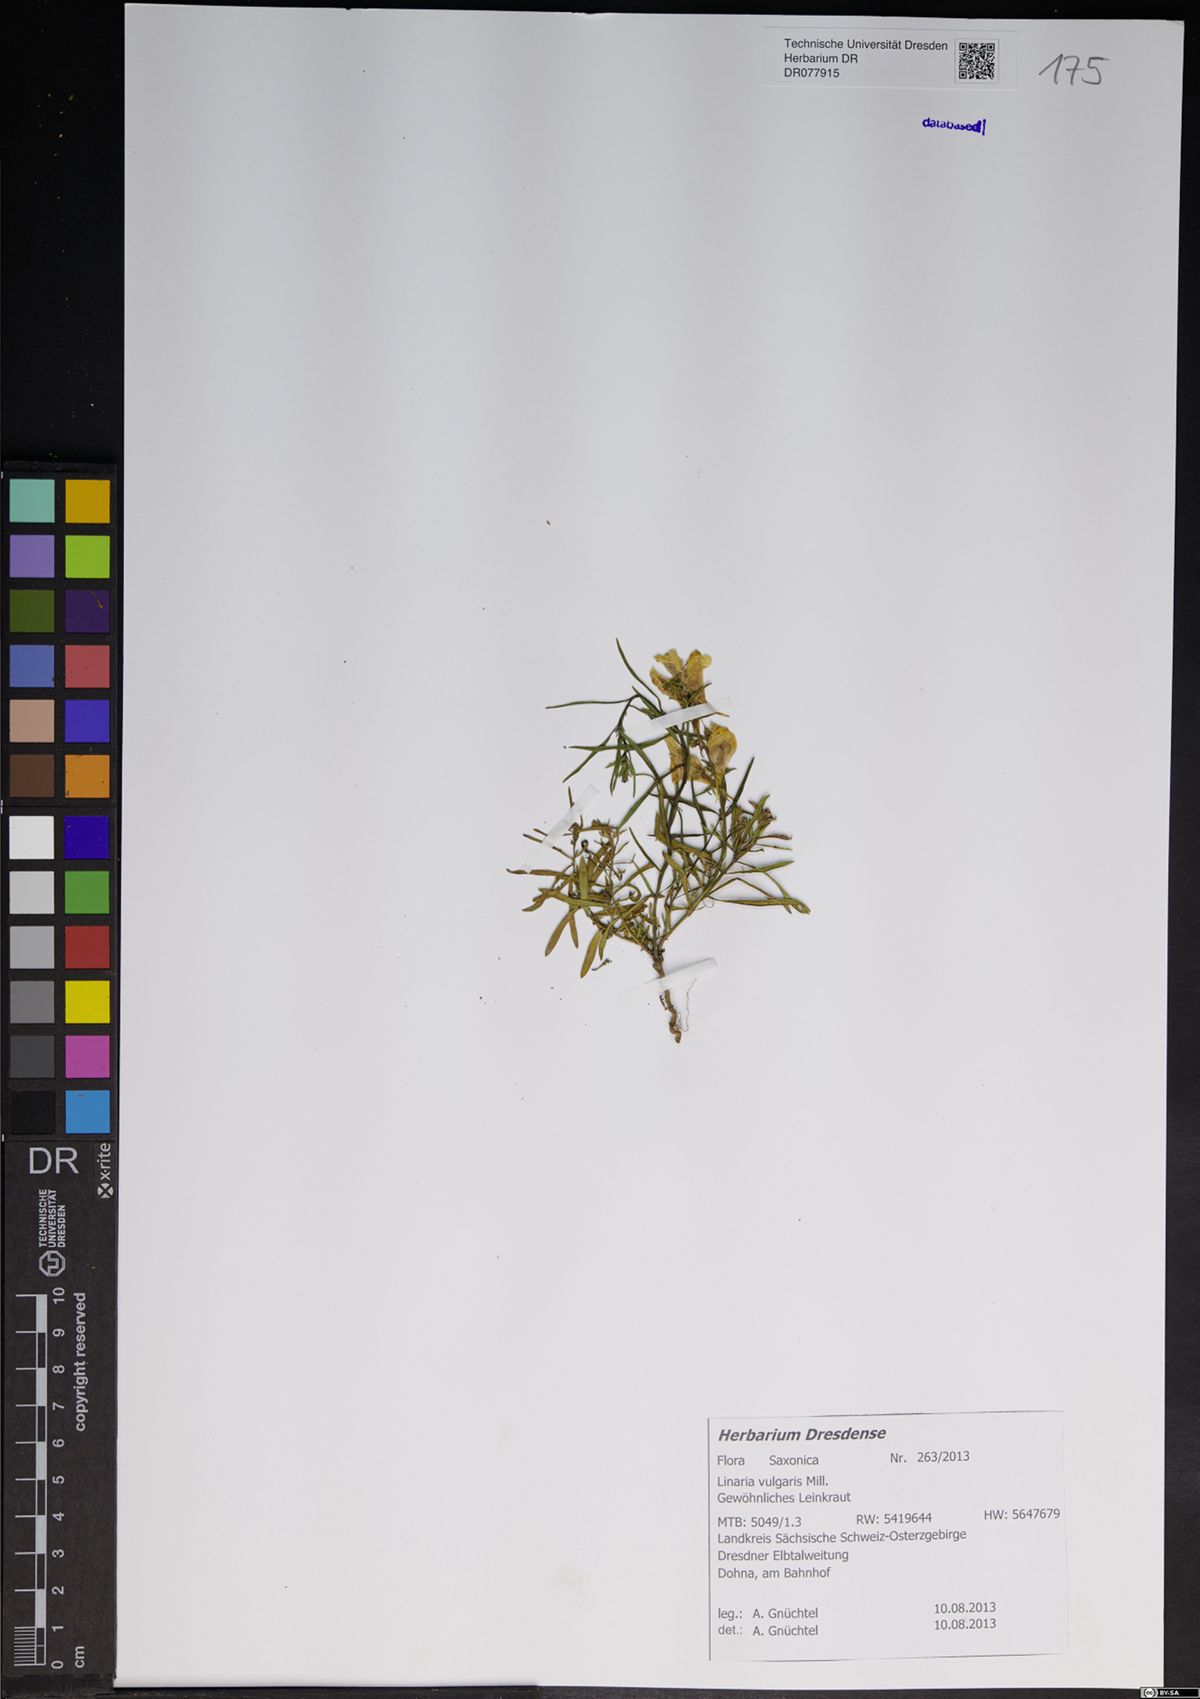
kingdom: Plantae
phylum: Tracheophyta
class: Magnoliopsida
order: Lamiales
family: Plantaginaceae
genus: Linaria
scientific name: Linaria vulgaris
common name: Butter and eggs
